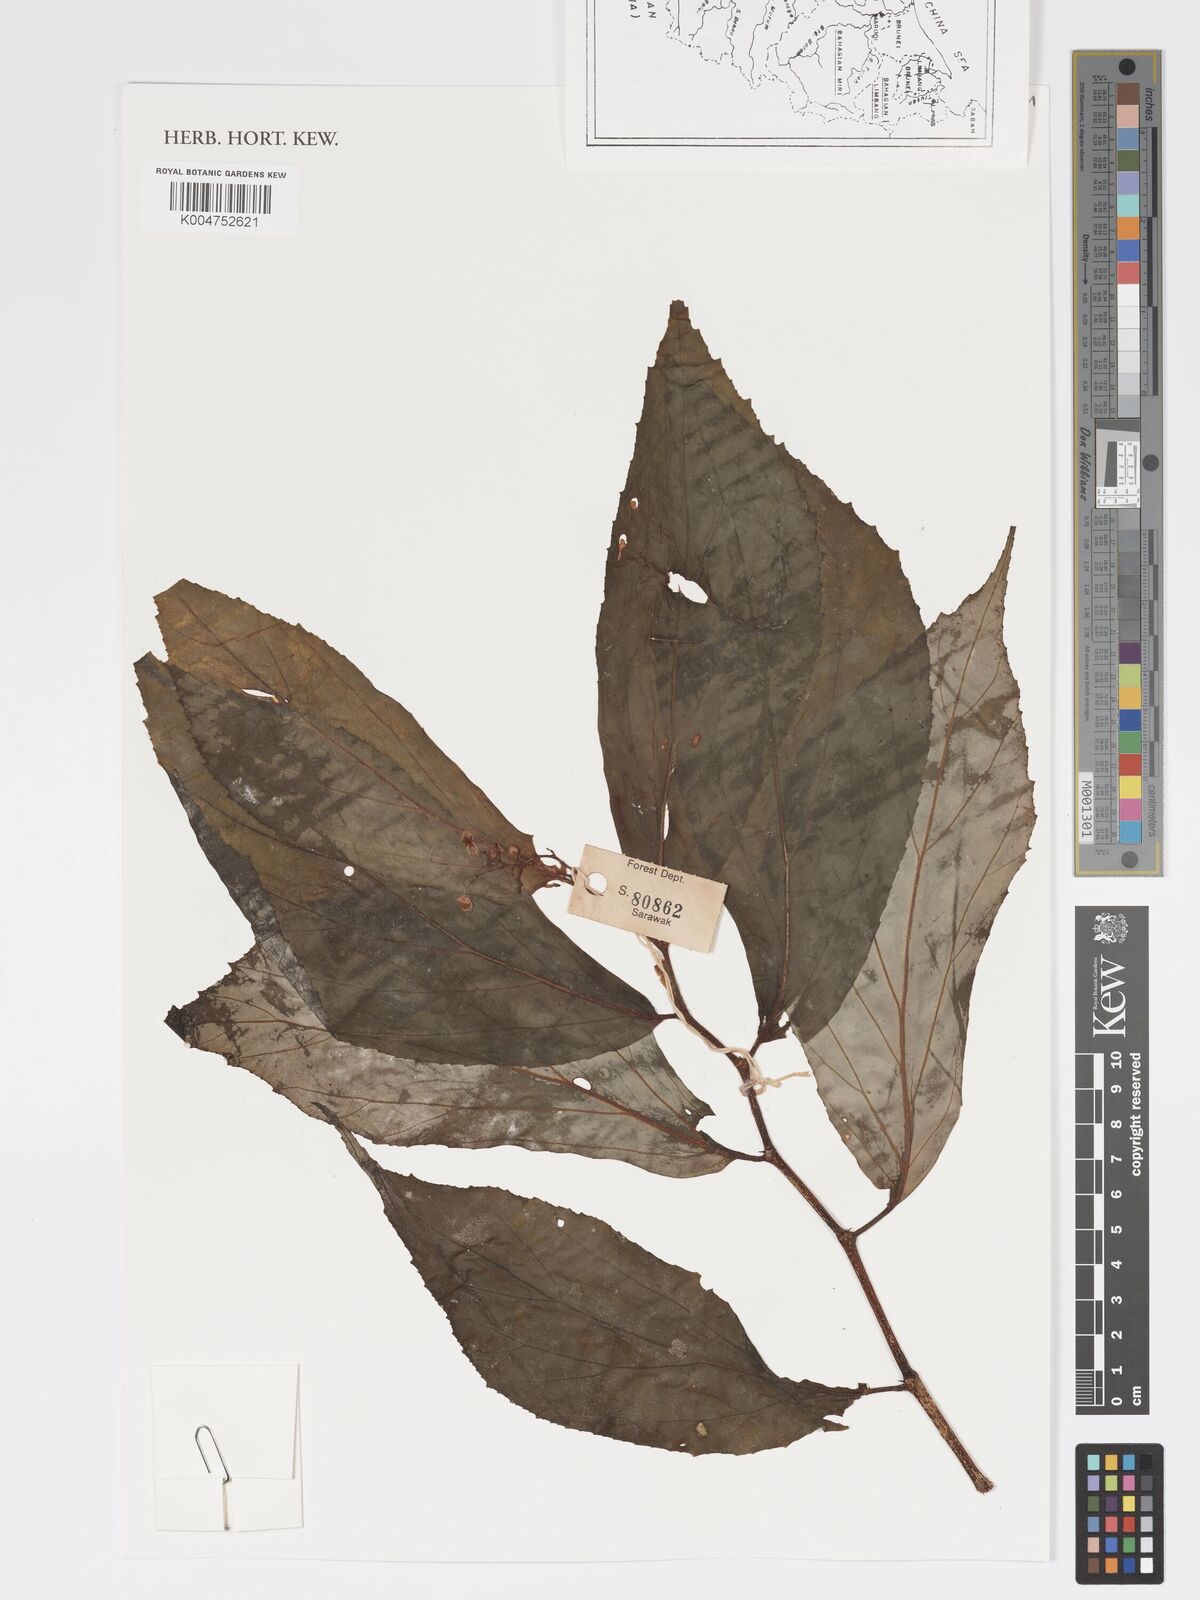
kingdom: Plantae
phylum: Tracheophyta
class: Magnoliopsida
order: Cucurbitales
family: Begoniaceae
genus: Begonia
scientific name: Begonia stenogyna
